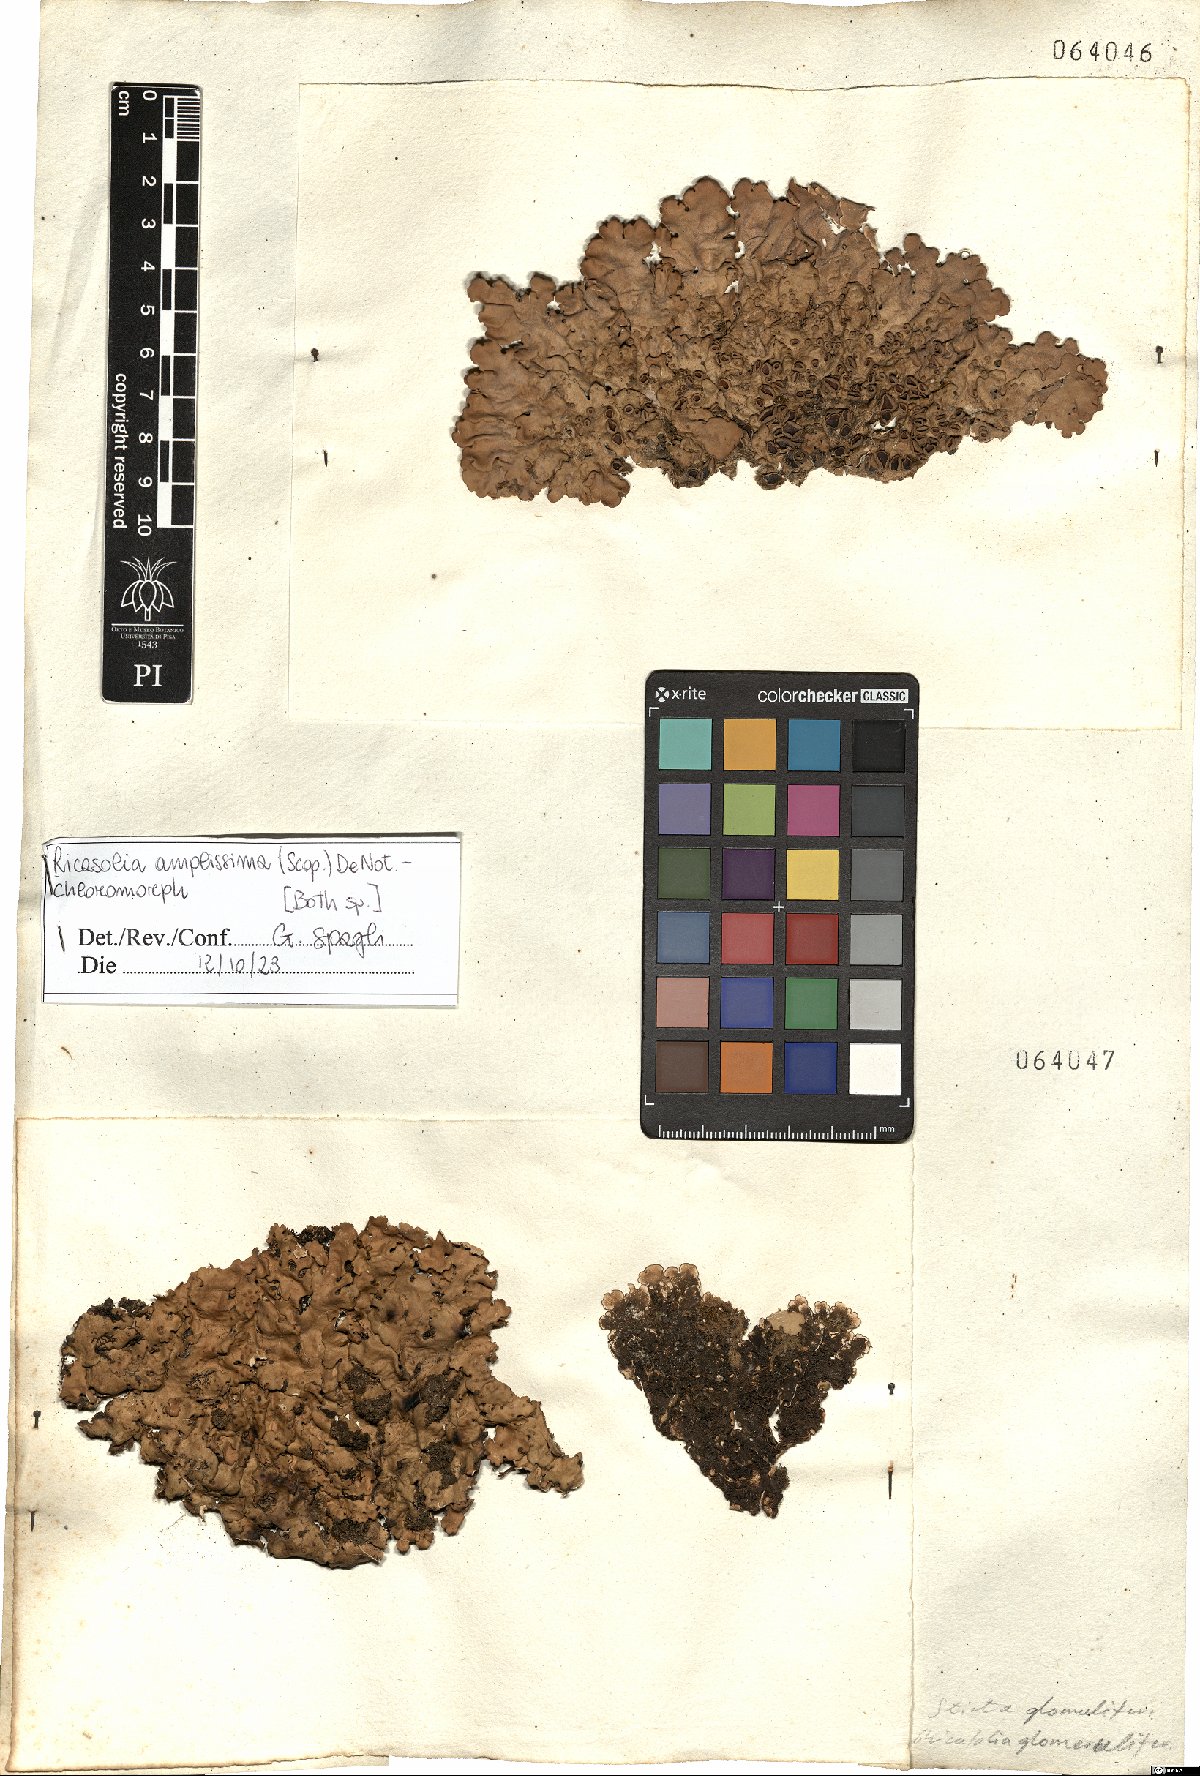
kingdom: Fungi
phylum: Ascomycota
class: Lecanoromycetes
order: Peltigerales
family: Lobariaceae
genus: Ricasolia
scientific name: Ricasolia amplissima
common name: Giant candlewax lichen
